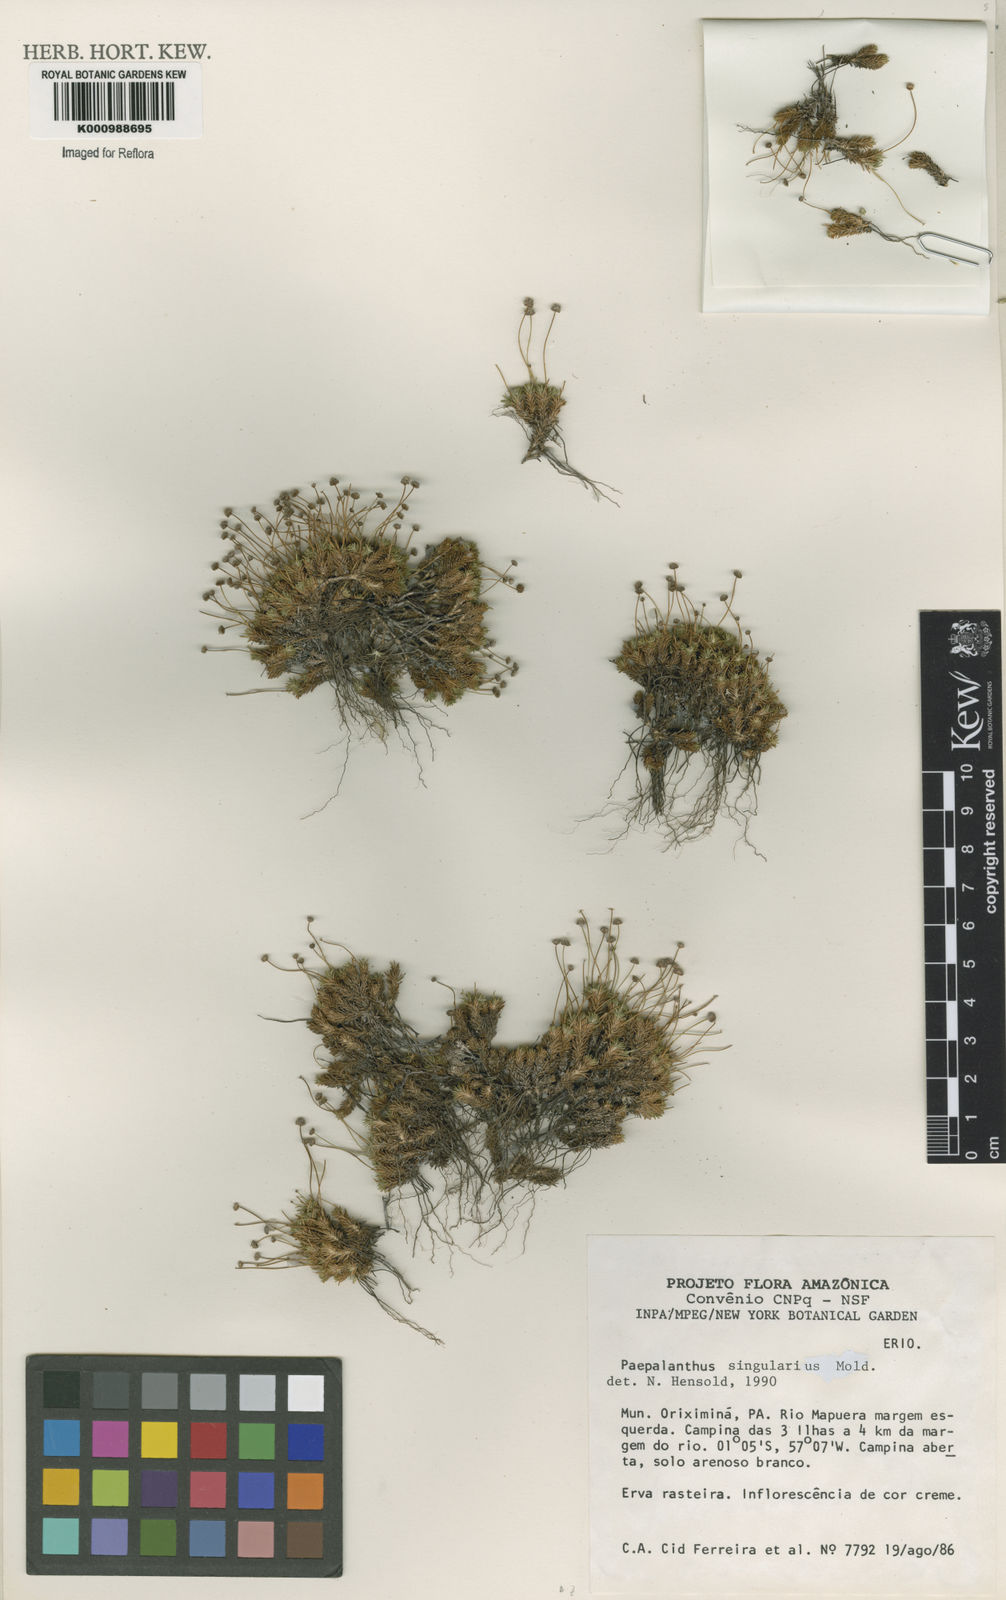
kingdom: Plantae
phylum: Tracheophyta
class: Liliopsida
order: Poales
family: Eriocaulaceae
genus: Paepalanthus
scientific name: Paepalanthus
